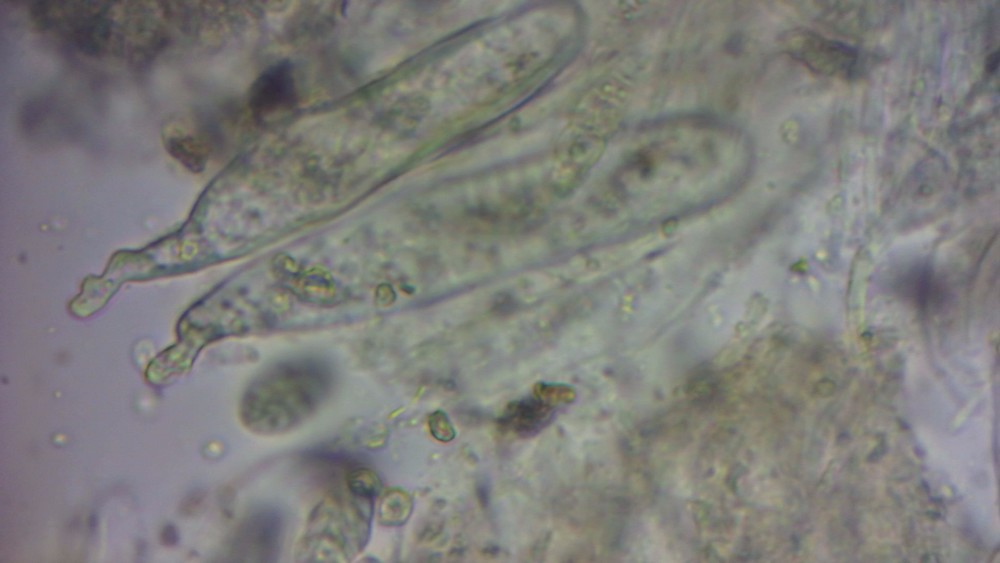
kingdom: Fungi
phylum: Ascomycota
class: Dothideomycetes
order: Hysteriales
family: Hysteriaceae
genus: Gloniopsis
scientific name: Gloniopsis praelonga
